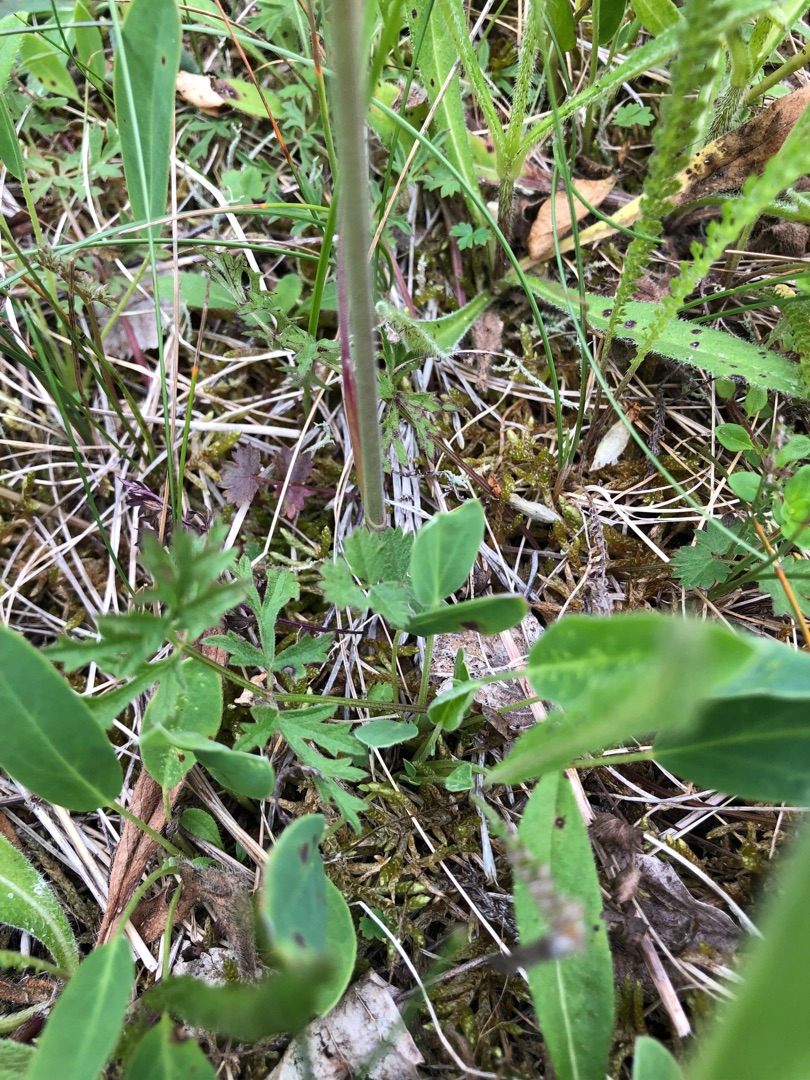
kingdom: Plantae
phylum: Tracheophyta
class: Magnoliopsida
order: Apiales
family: Apiaceae
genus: Pimpinella
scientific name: Pimpinella saxifraga
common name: Almindelig pimpinelle
